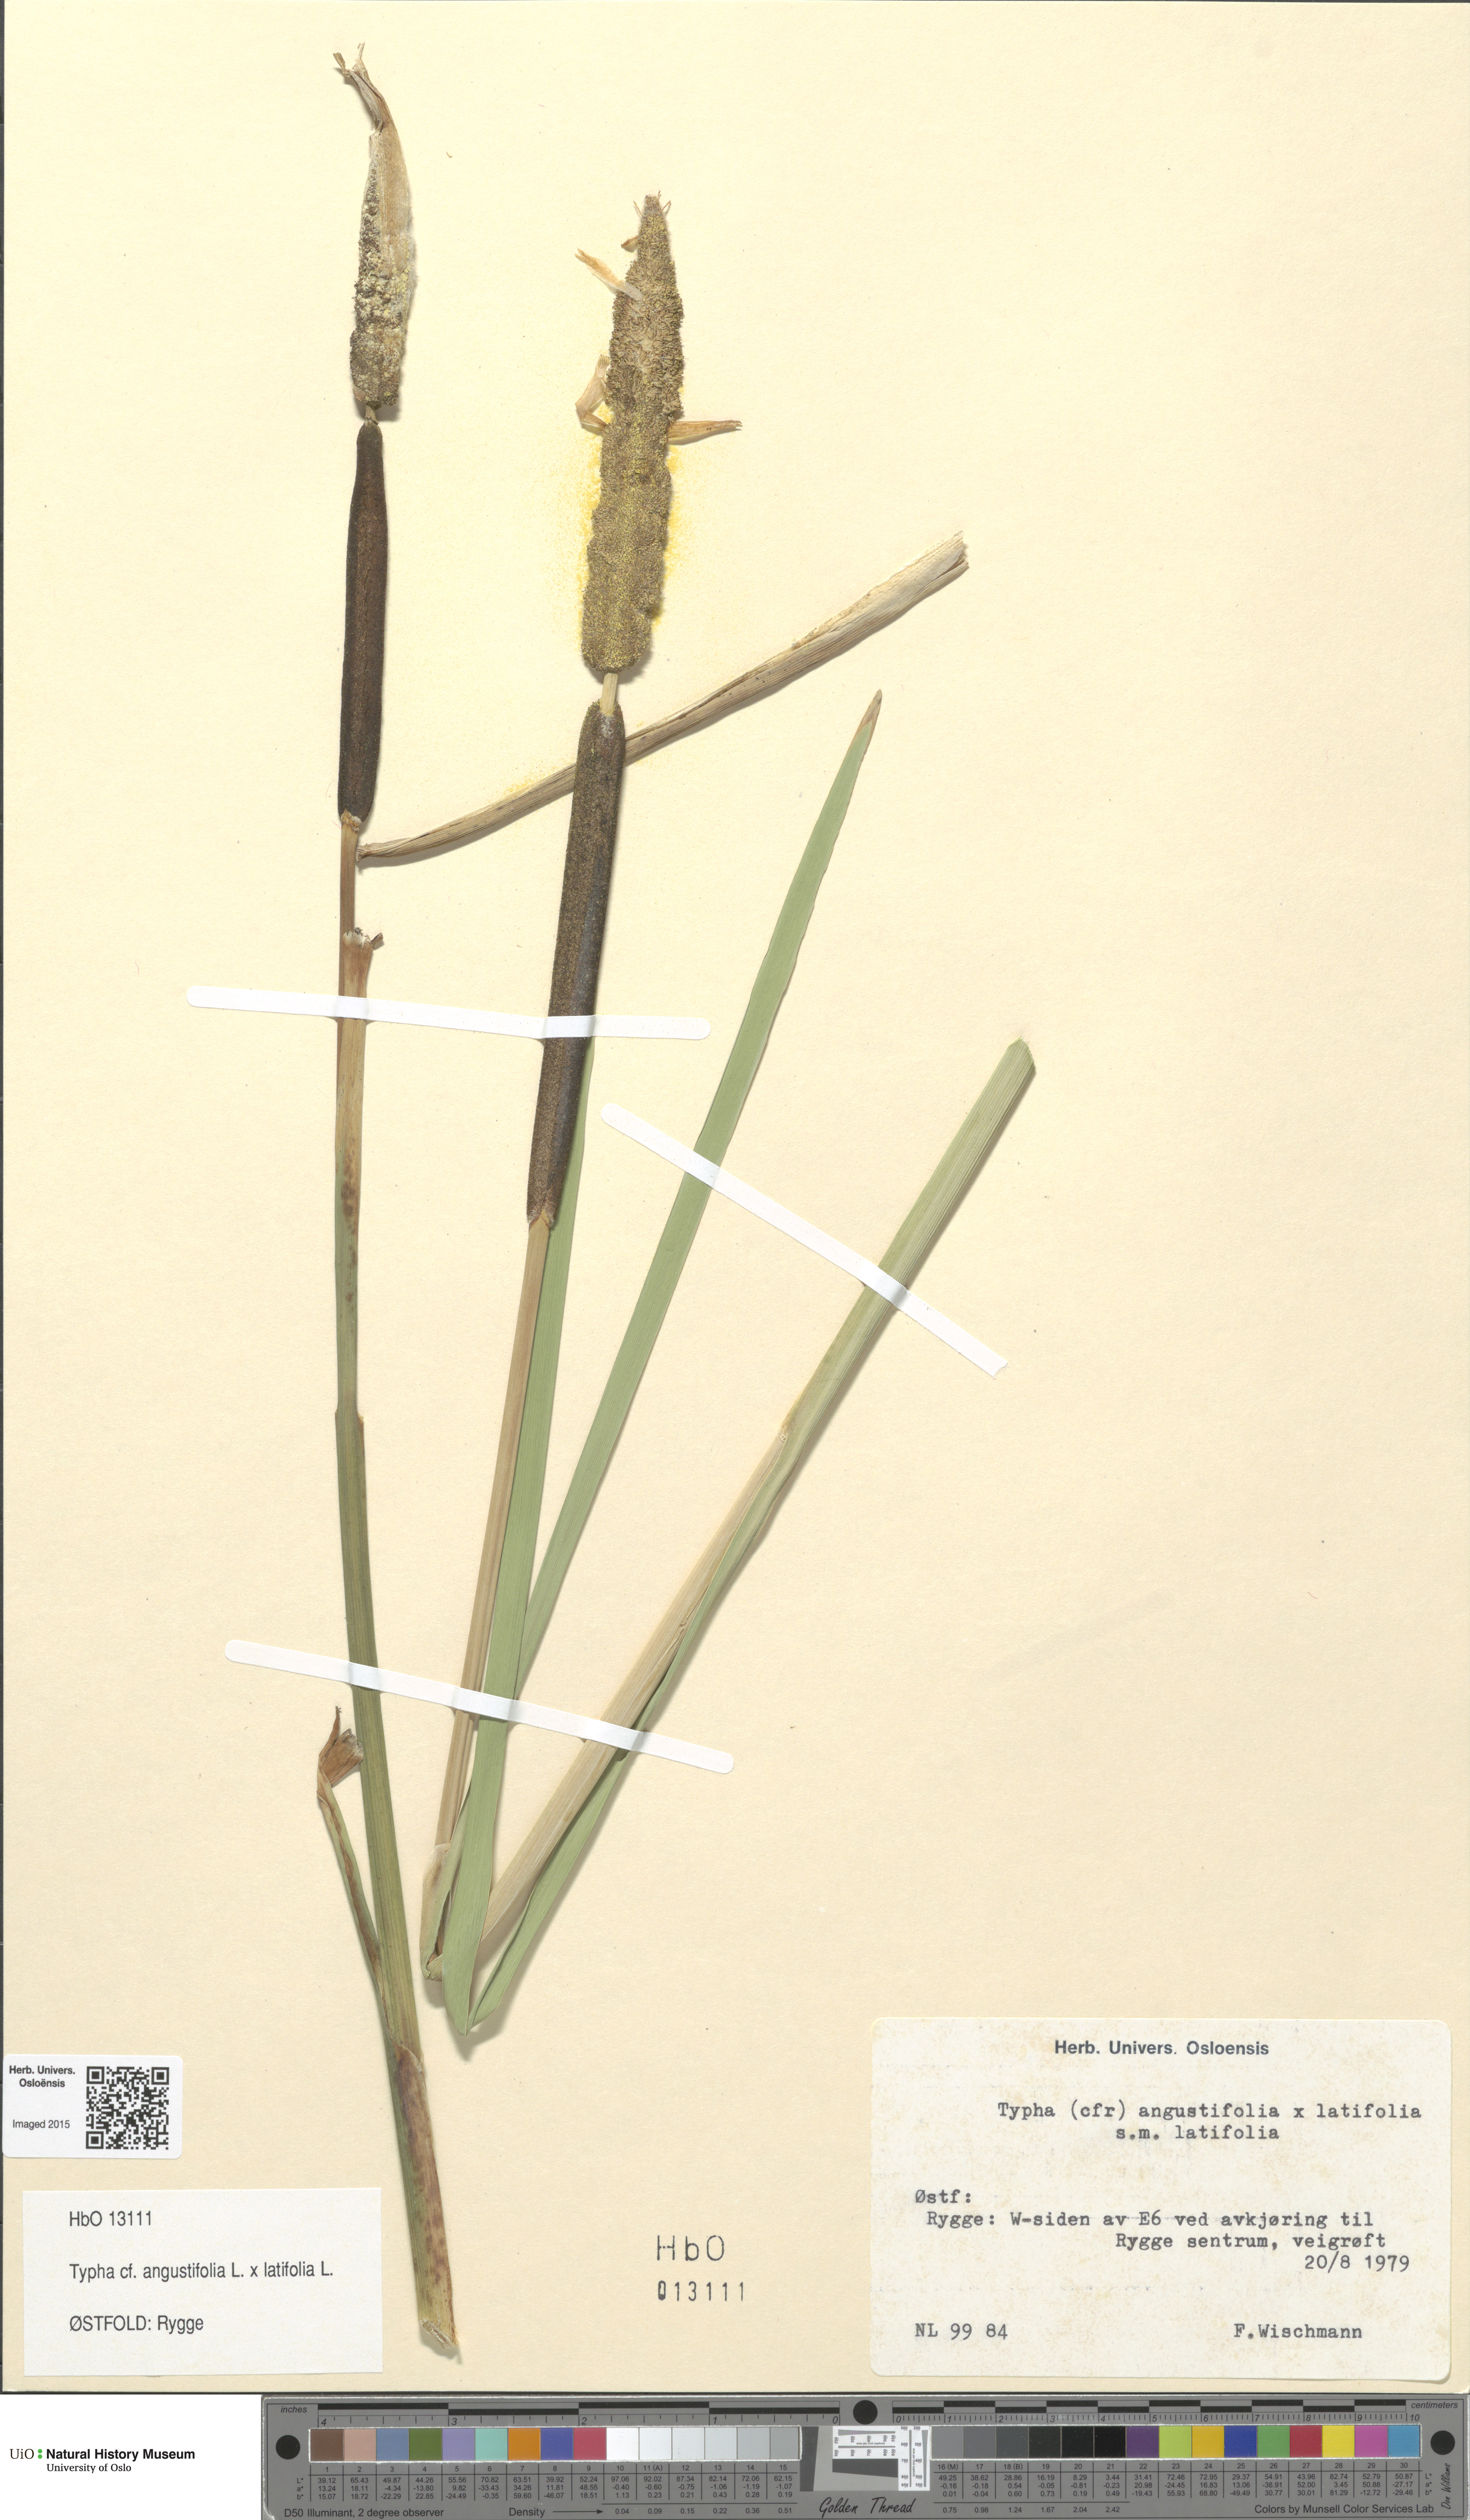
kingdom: Plantae
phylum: Tracheophyta
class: Liliopsida
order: Poales
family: Typhaceae
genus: Typha
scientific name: Typha
